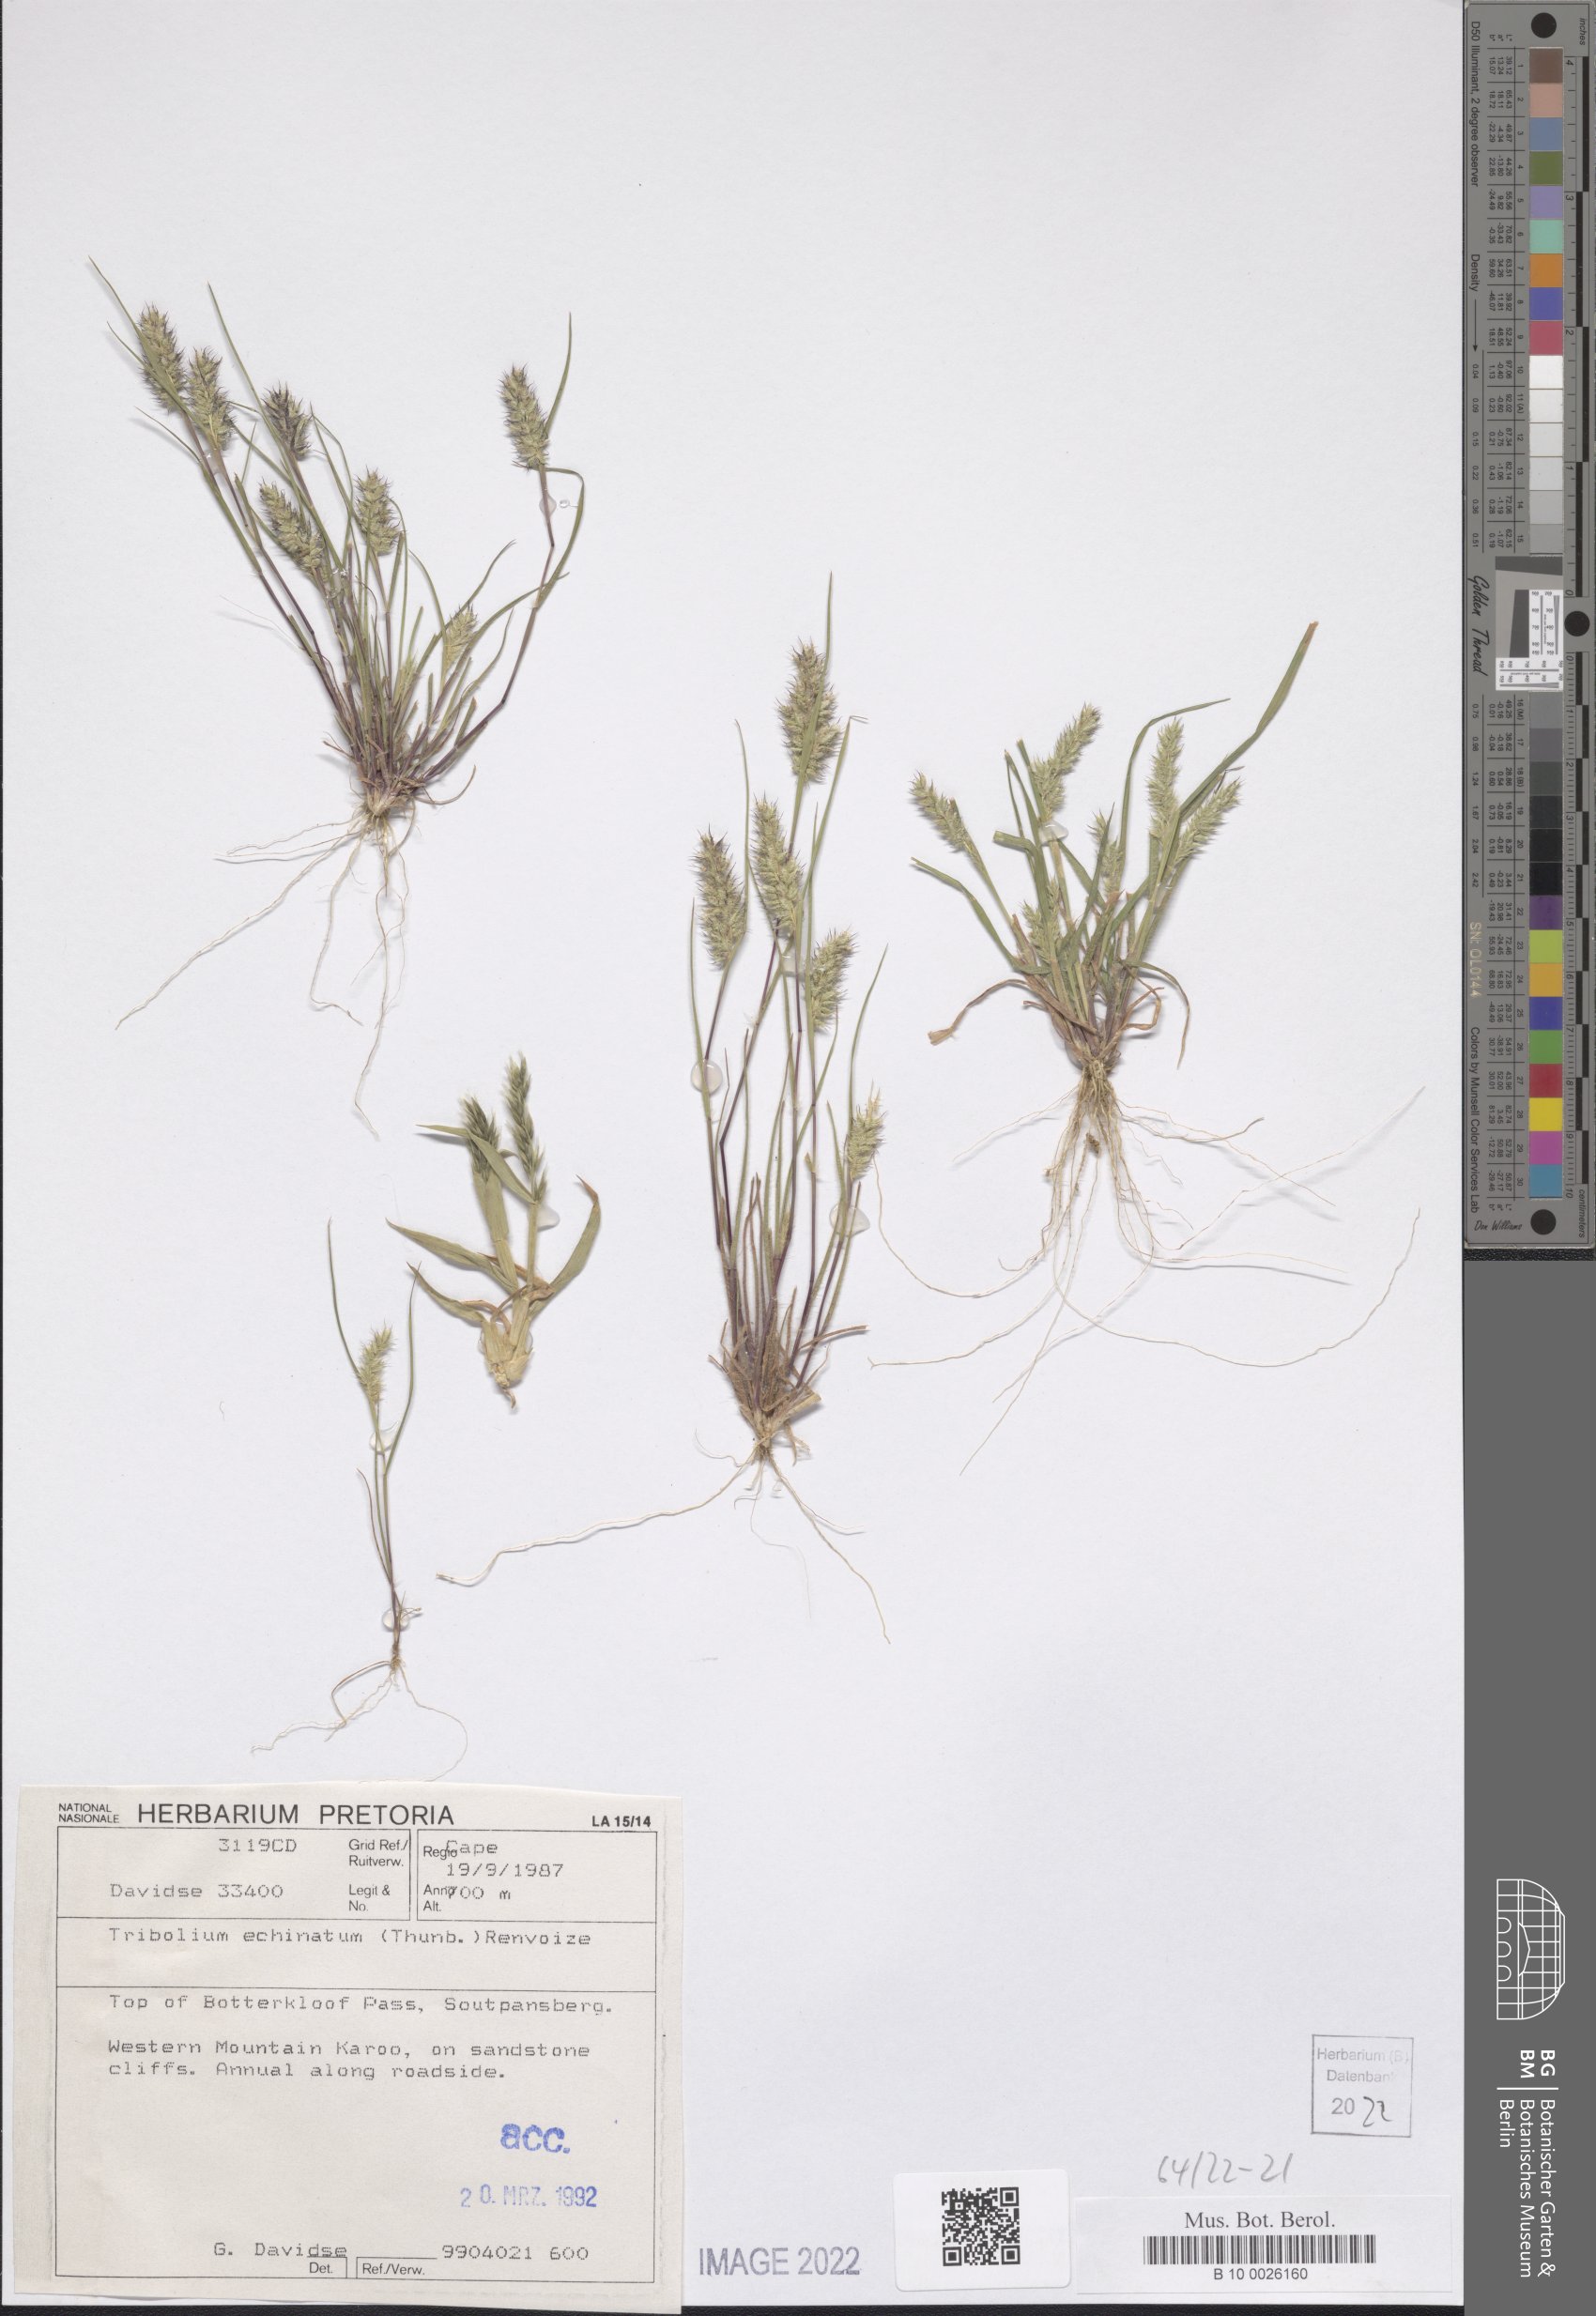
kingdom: Plantae
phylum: Tracheophyta
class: Liliopsida
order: Poales
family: Poaceae
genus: Tribolium
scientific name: Tribolium echinatum
